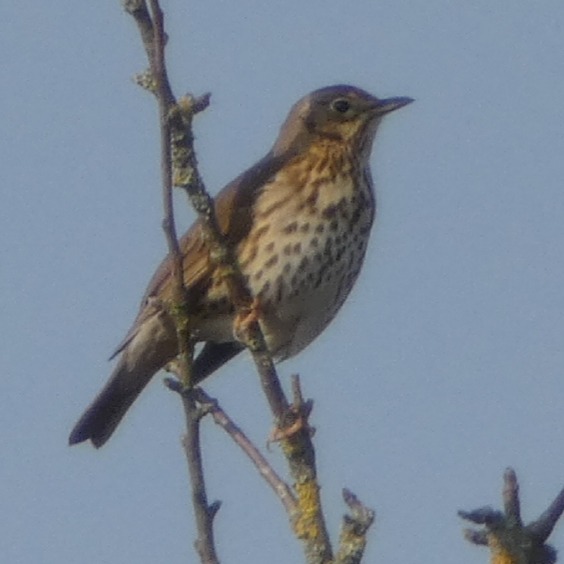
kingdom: Animalia
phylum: Chordata
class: Aves
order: Passeriformes
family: Turdidae
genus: Turdus
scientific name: Turdus philomelos
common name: Sangdrossel
